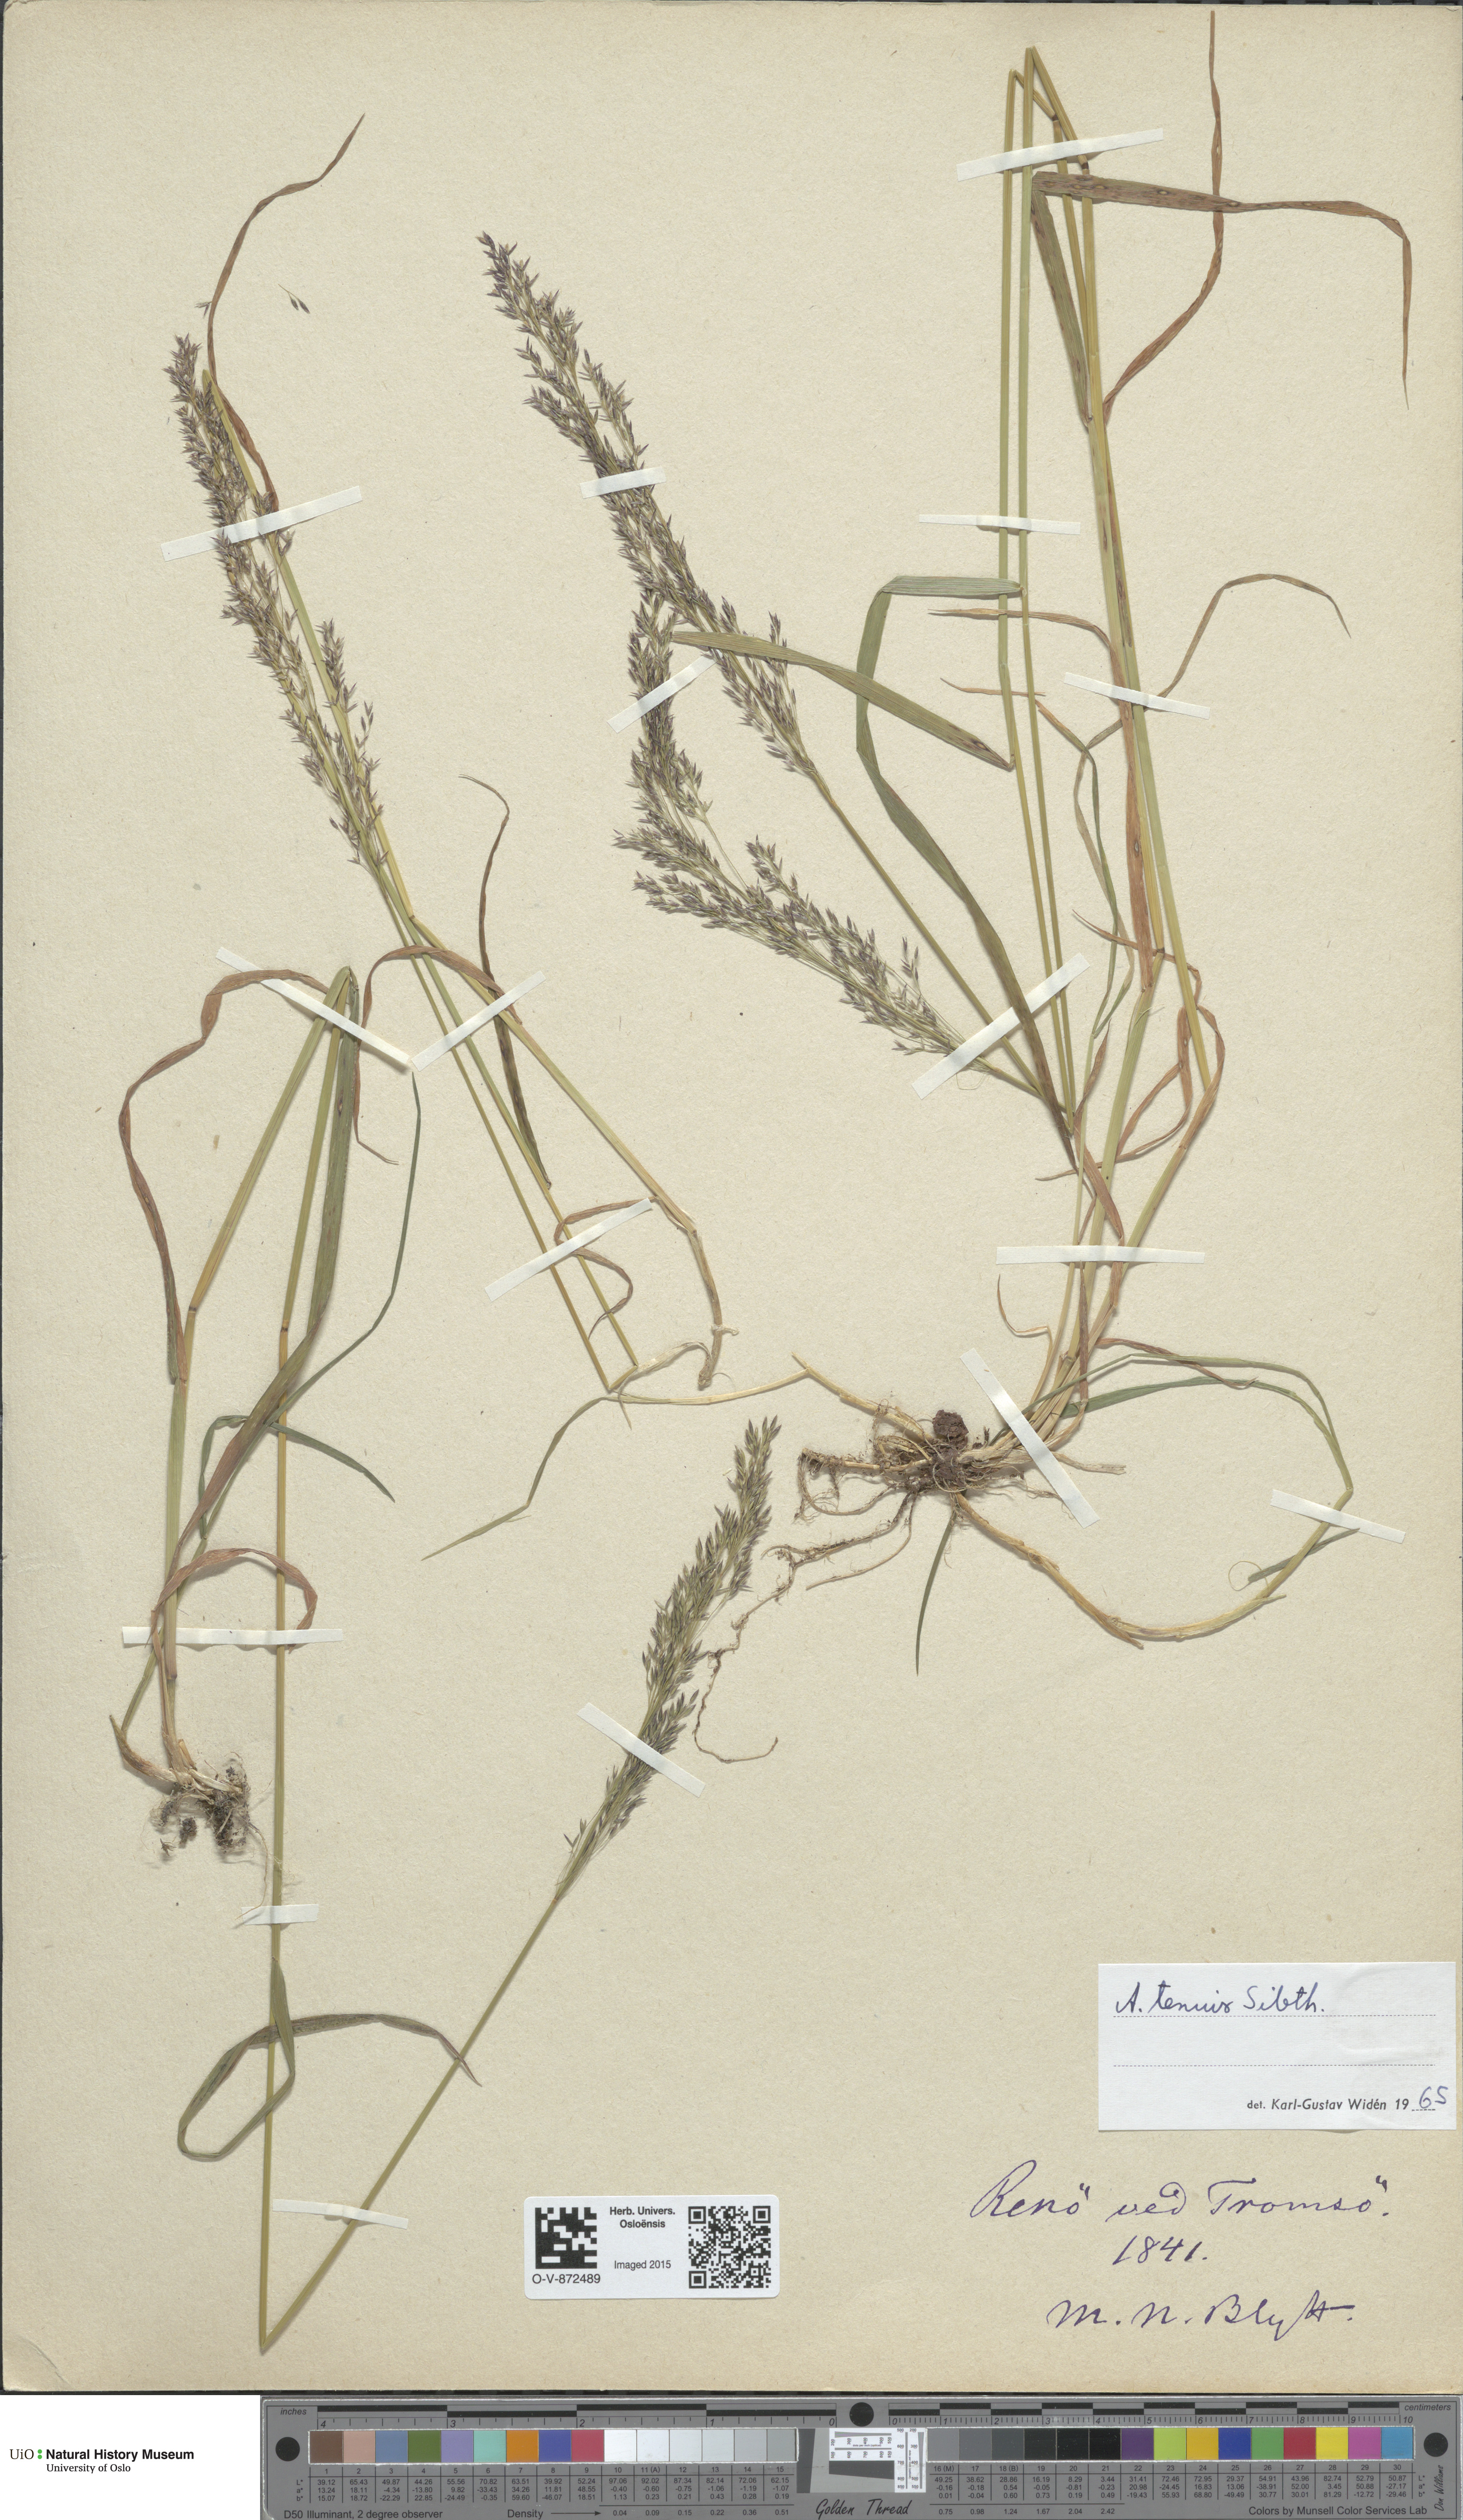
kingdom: Plantae
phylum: Tracheophyta
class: Liliopsida
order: Poales
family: Poaceae
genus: Agrostis
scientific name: Agrostis capillaris
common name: Colonial bentgrass
